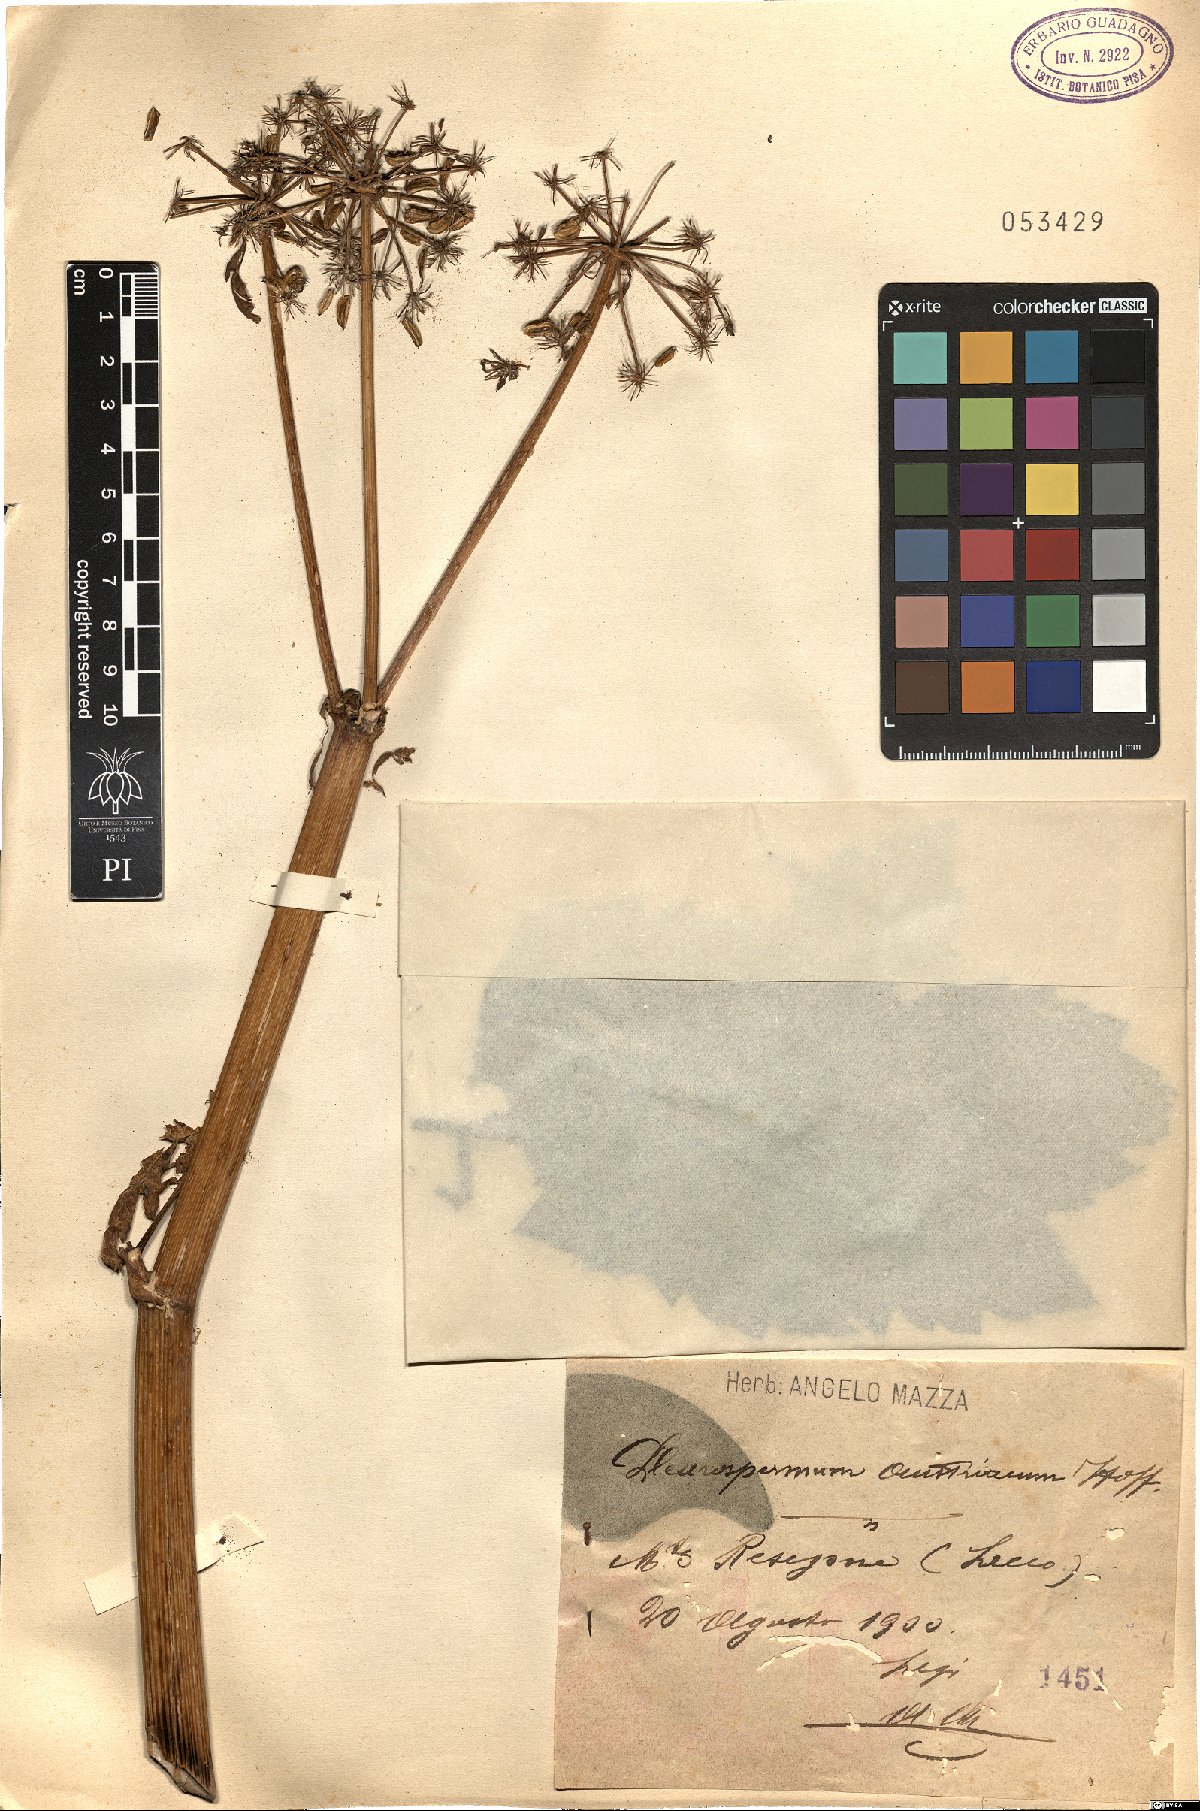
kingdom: Plantae
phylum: Tracheophyta
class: Magnoliopsida
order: Apiales
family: Apiaceae
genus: Pleurospermum
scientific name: Pleurospermum austriacum
